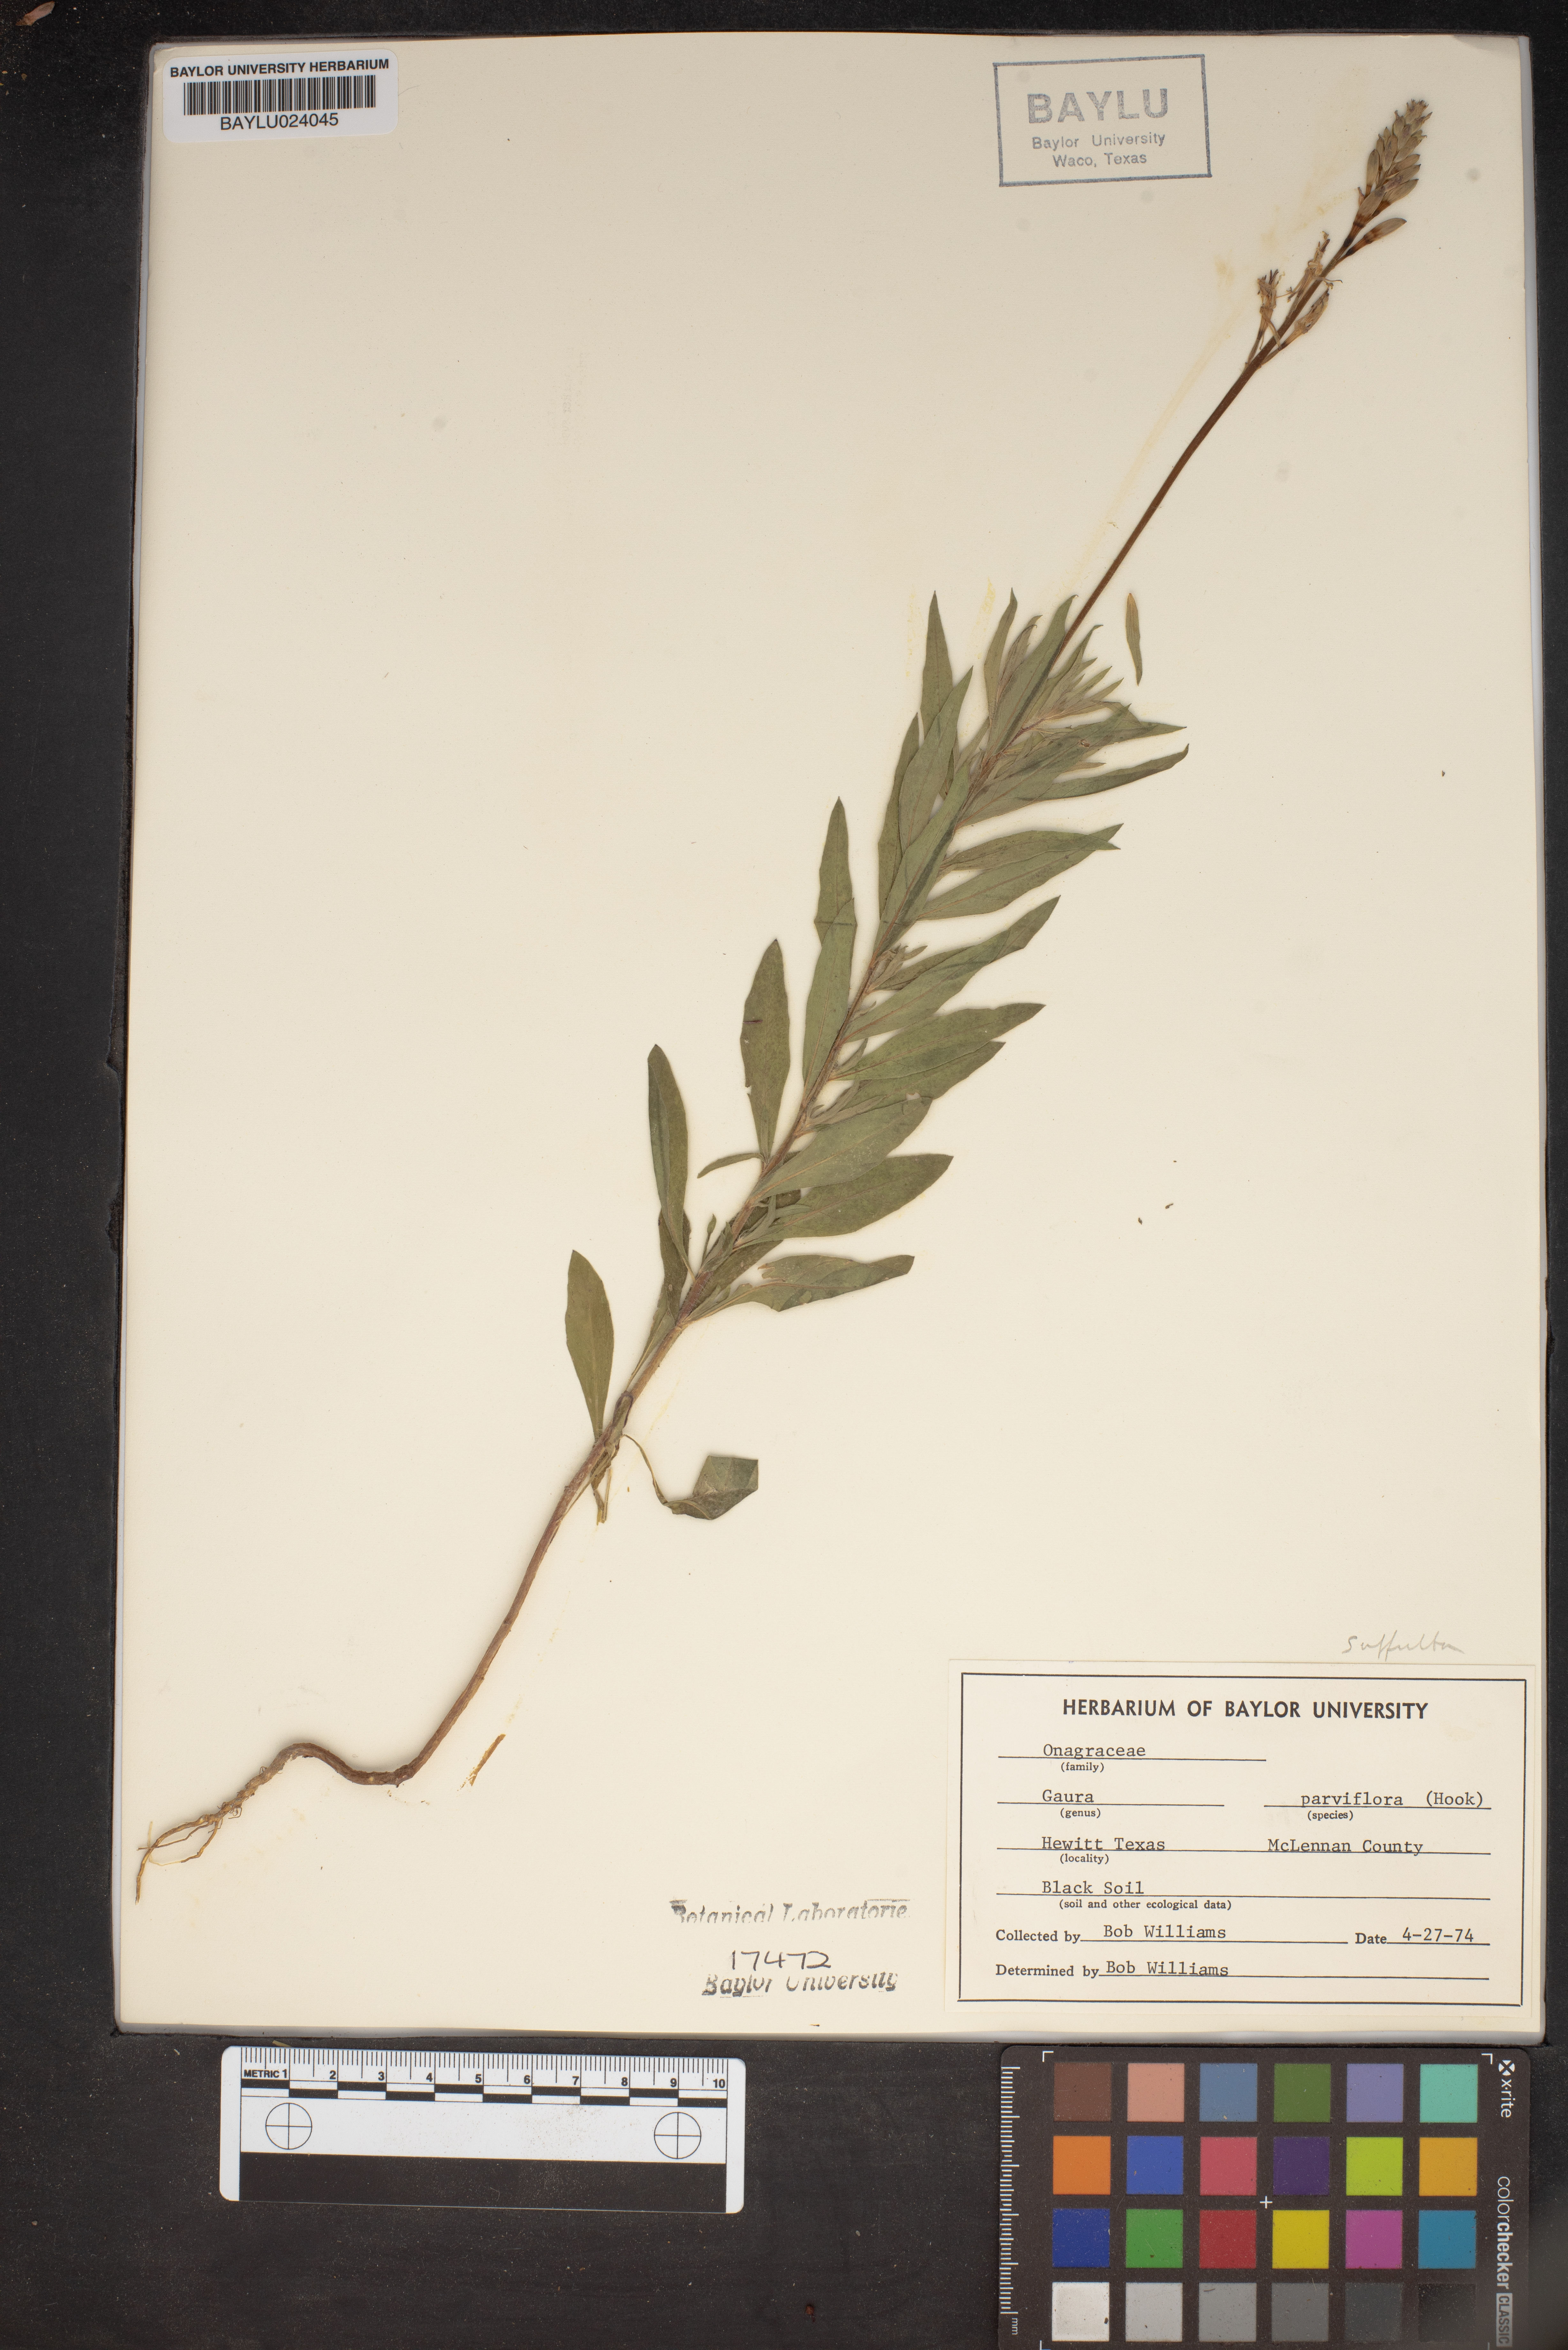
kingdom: Plantae
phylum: Tracheophyta
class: Magnoliopsida
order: Myrtales
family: Onagraceae
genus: Oenothera
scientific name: Oenothera curtiflora
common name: Velvetweed
